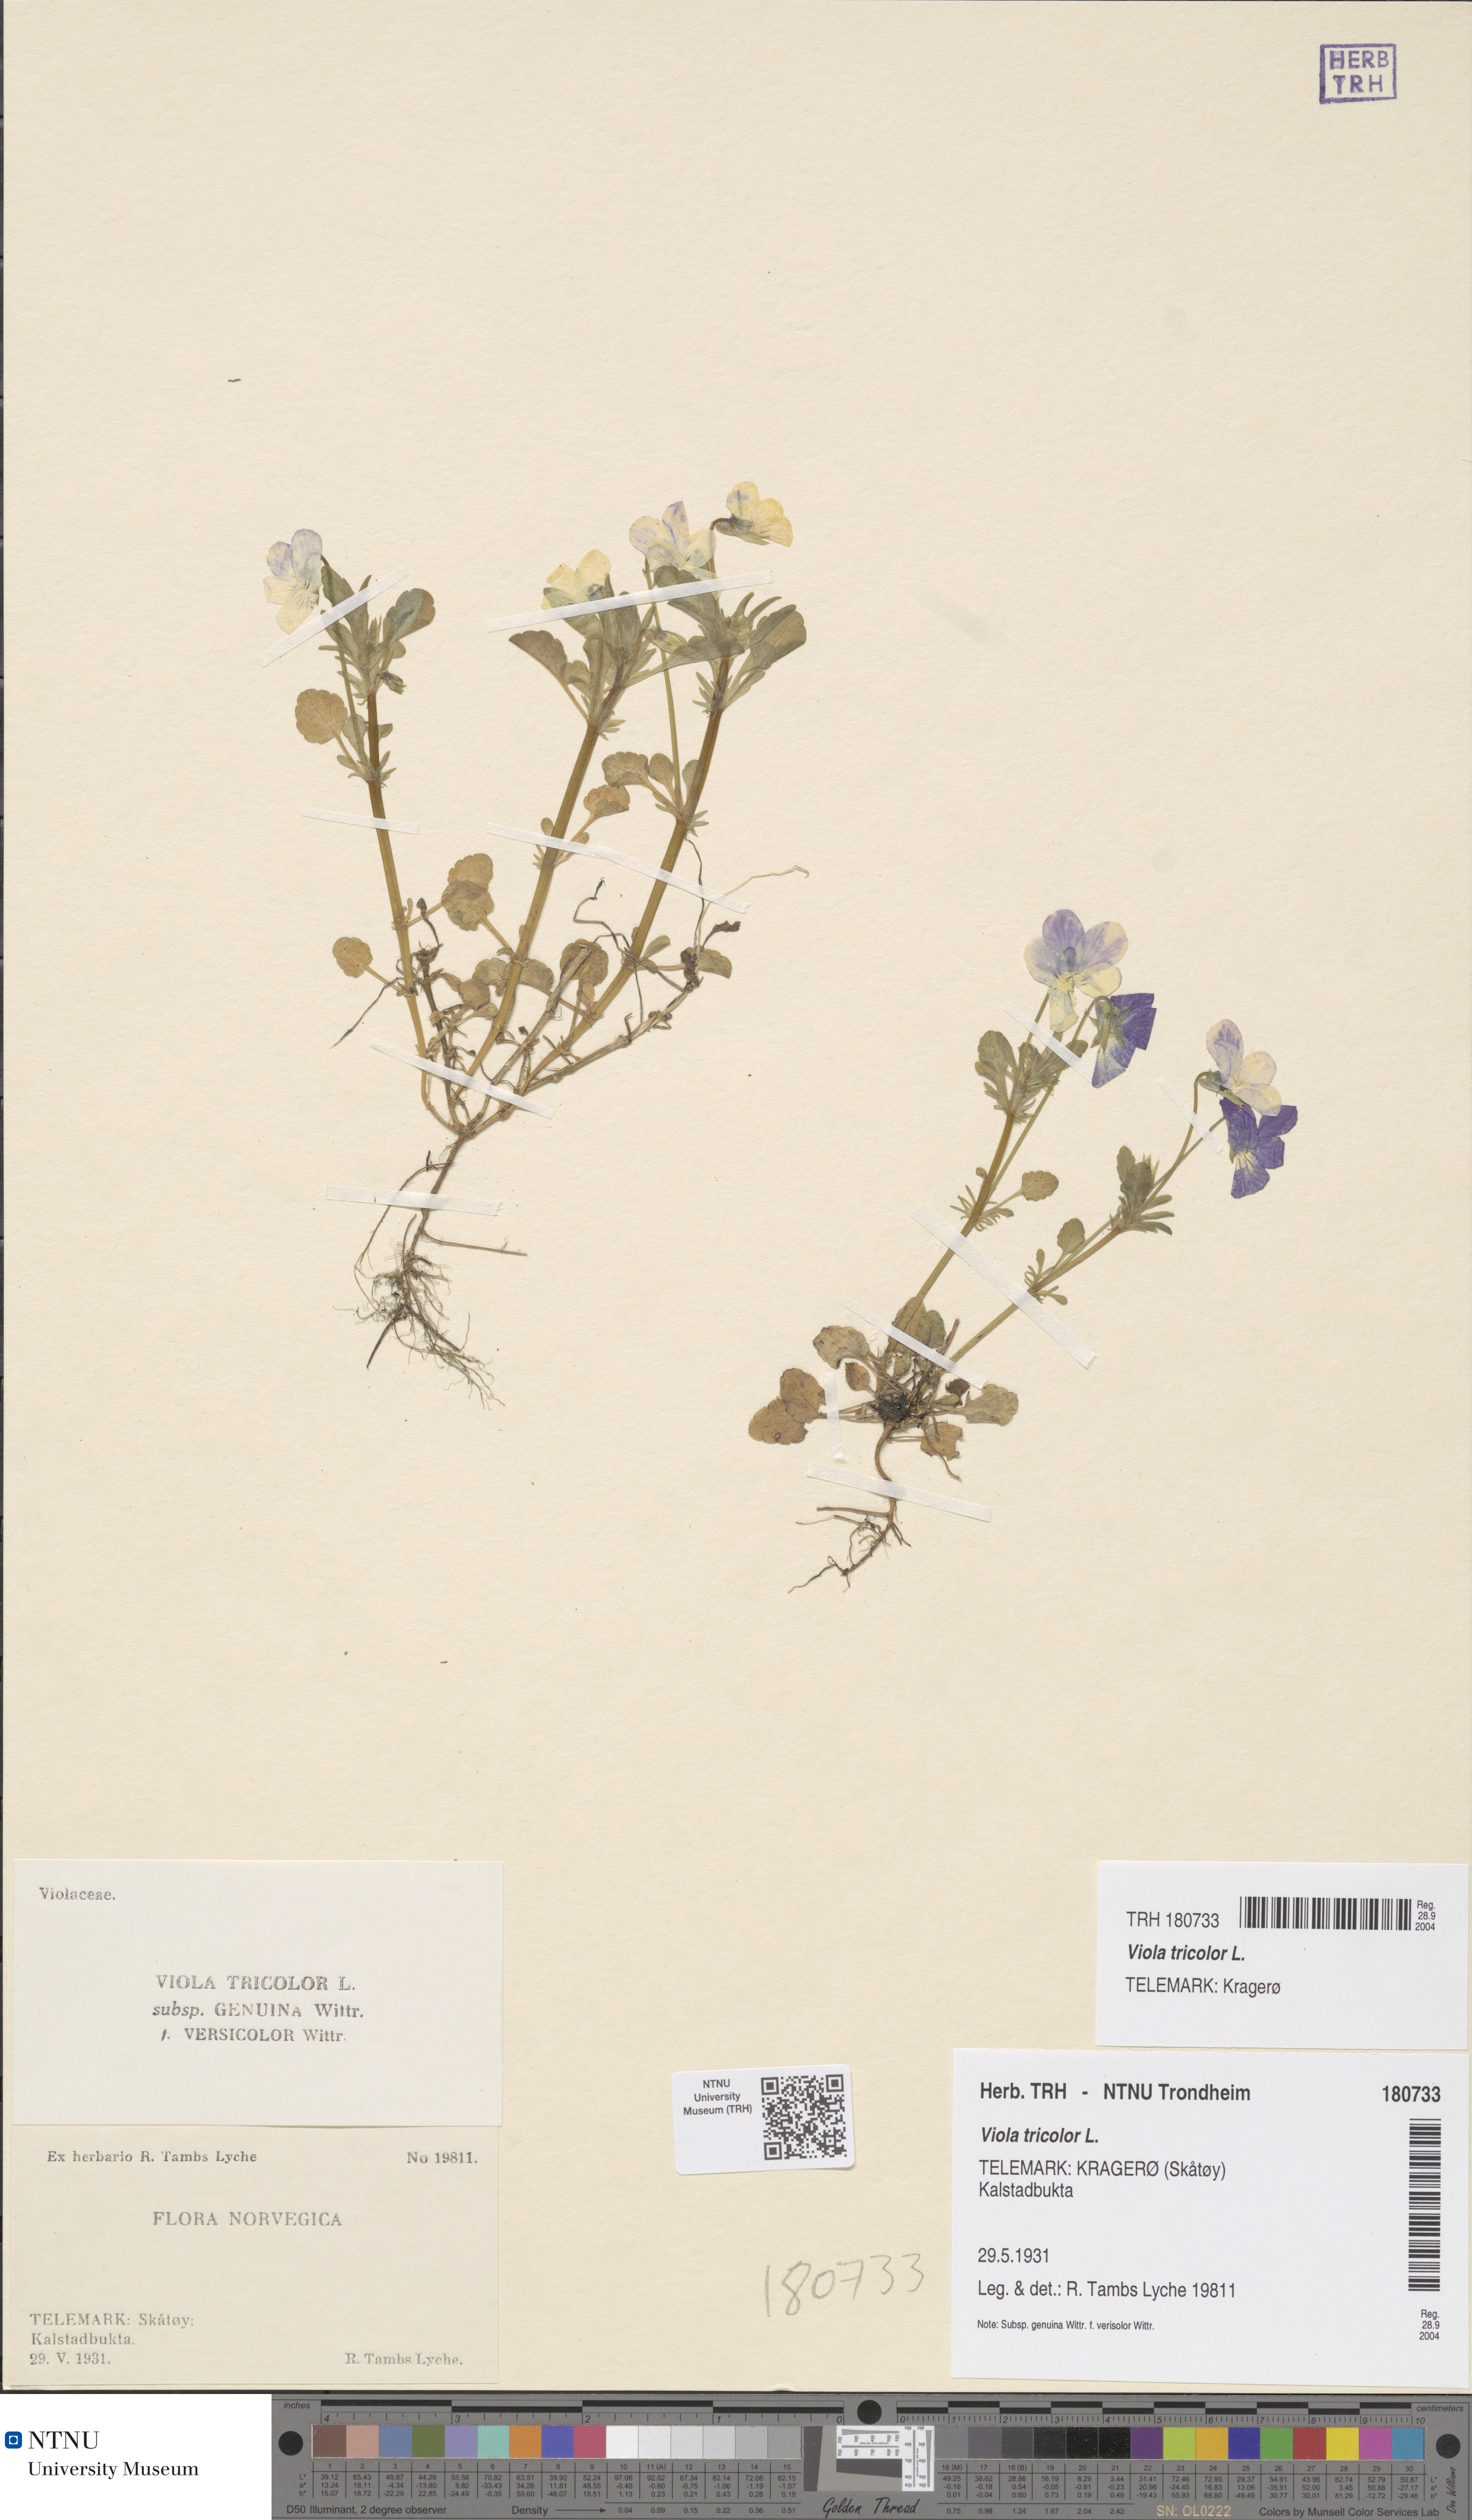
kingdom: Plantae
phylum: Tracheophyta
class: Magnoliopsida
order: Malpighiales
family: Violaceae
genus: Viola
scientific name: Viola tricolor
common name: Pansy
